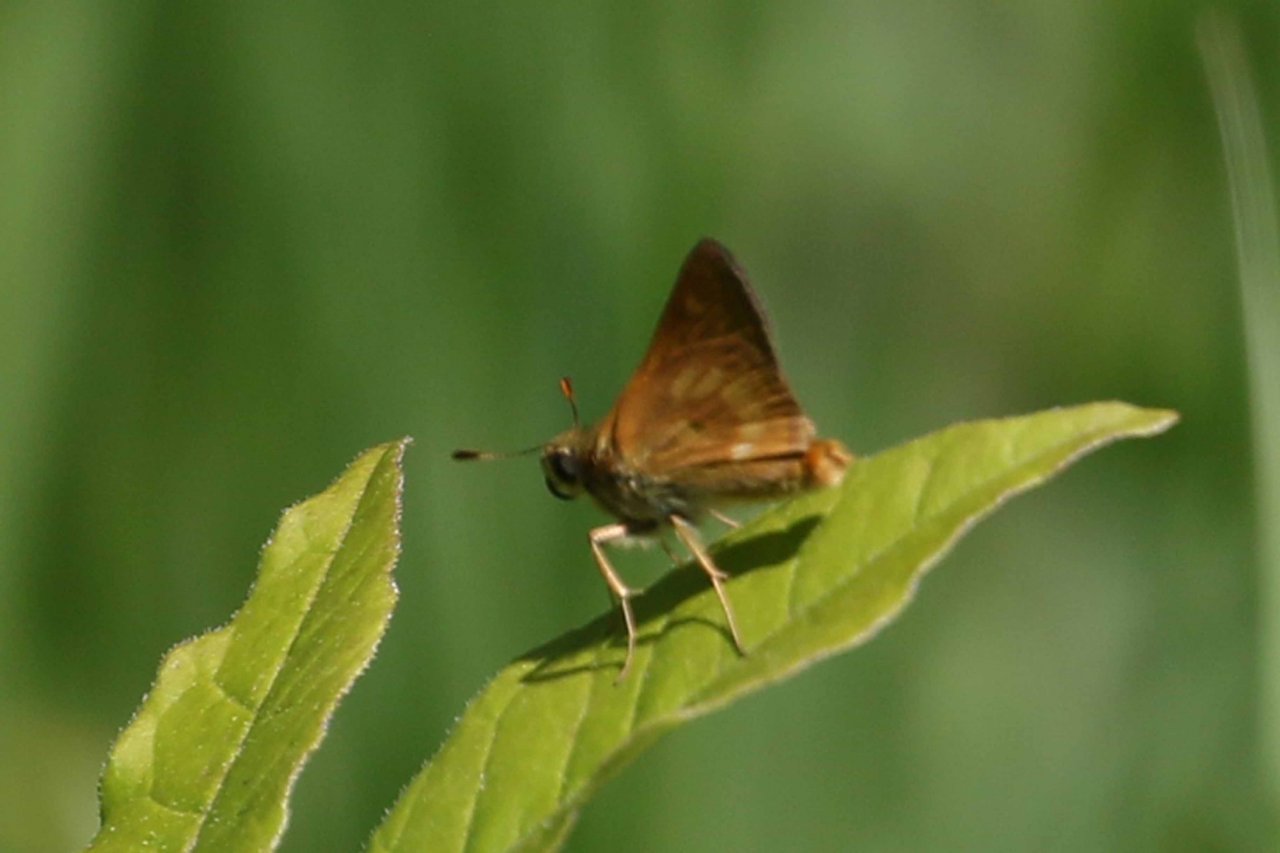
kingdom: Animalia
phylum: Arthropoda
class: Insecta
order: Lepidoptera
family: Hesperiidae
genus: Polites
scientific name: Polites
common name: Long Dash Skipper
